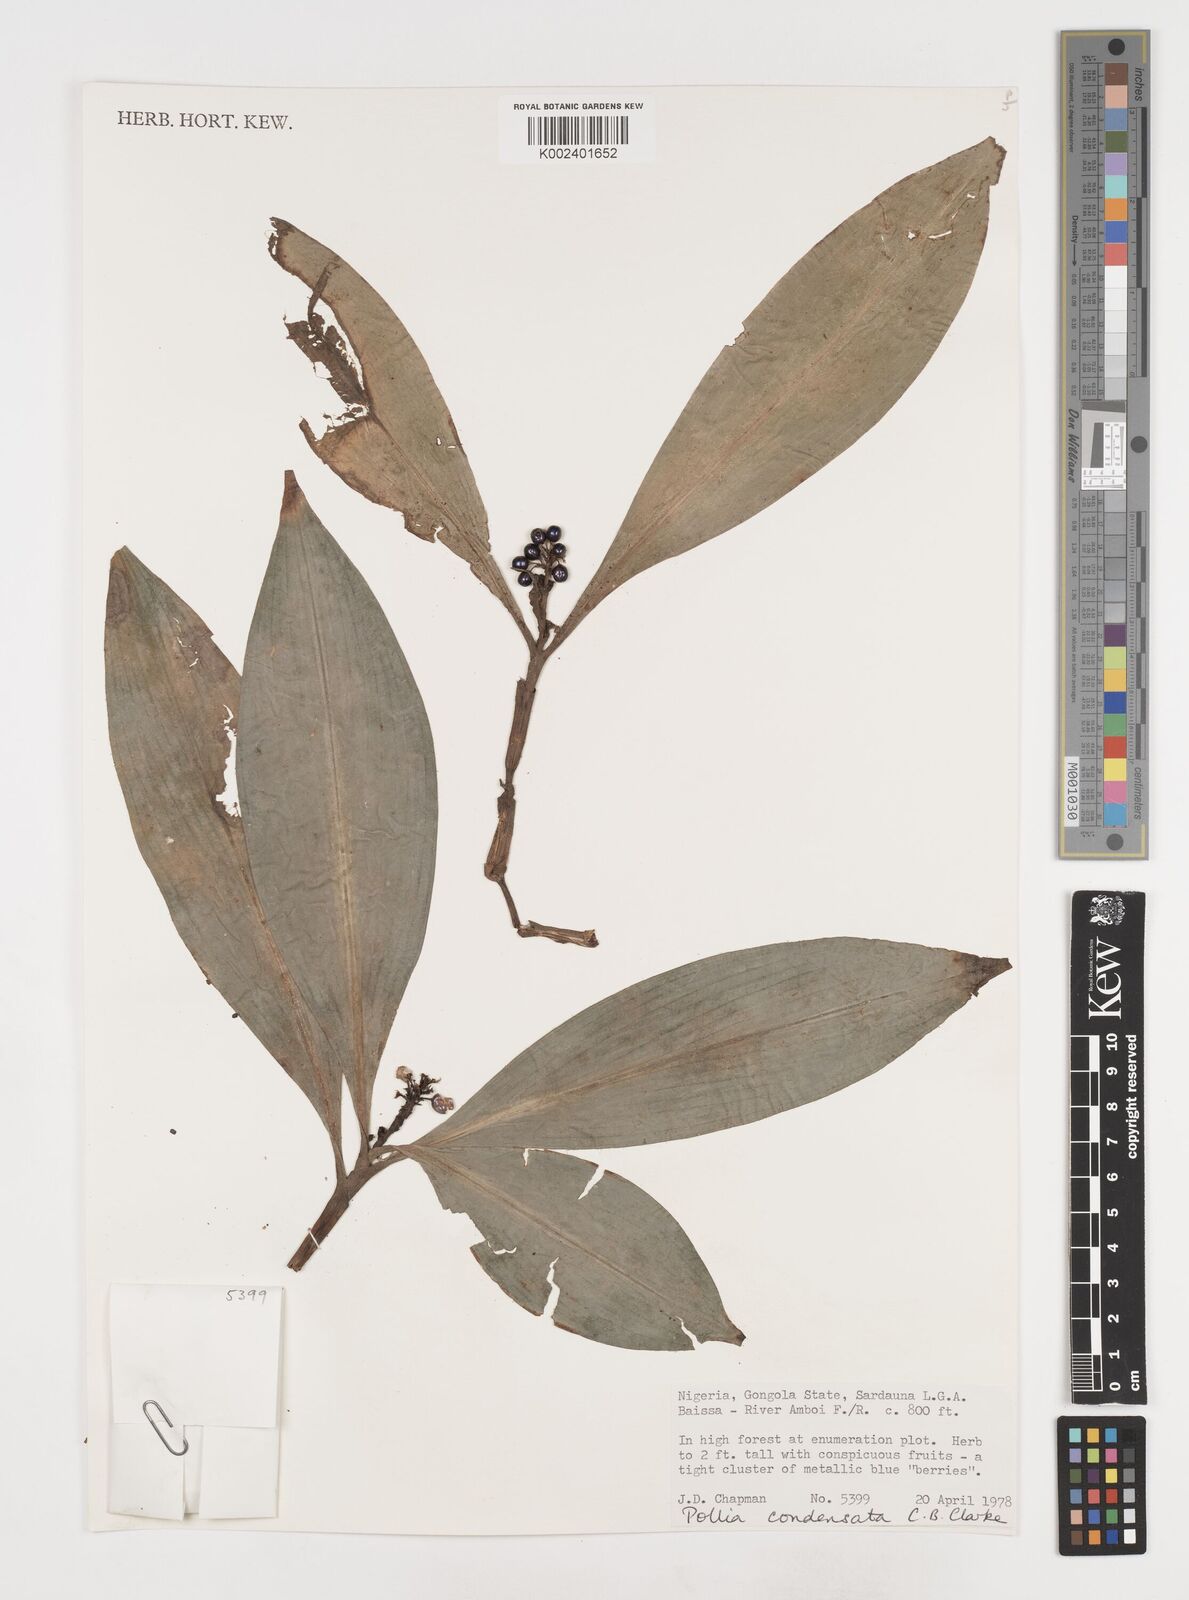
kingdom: Plantae
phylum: Tracheophyta
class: Liliopsida
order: Commelinales
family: Commelinaceae
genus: Pollia
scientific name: Pollia condensata
